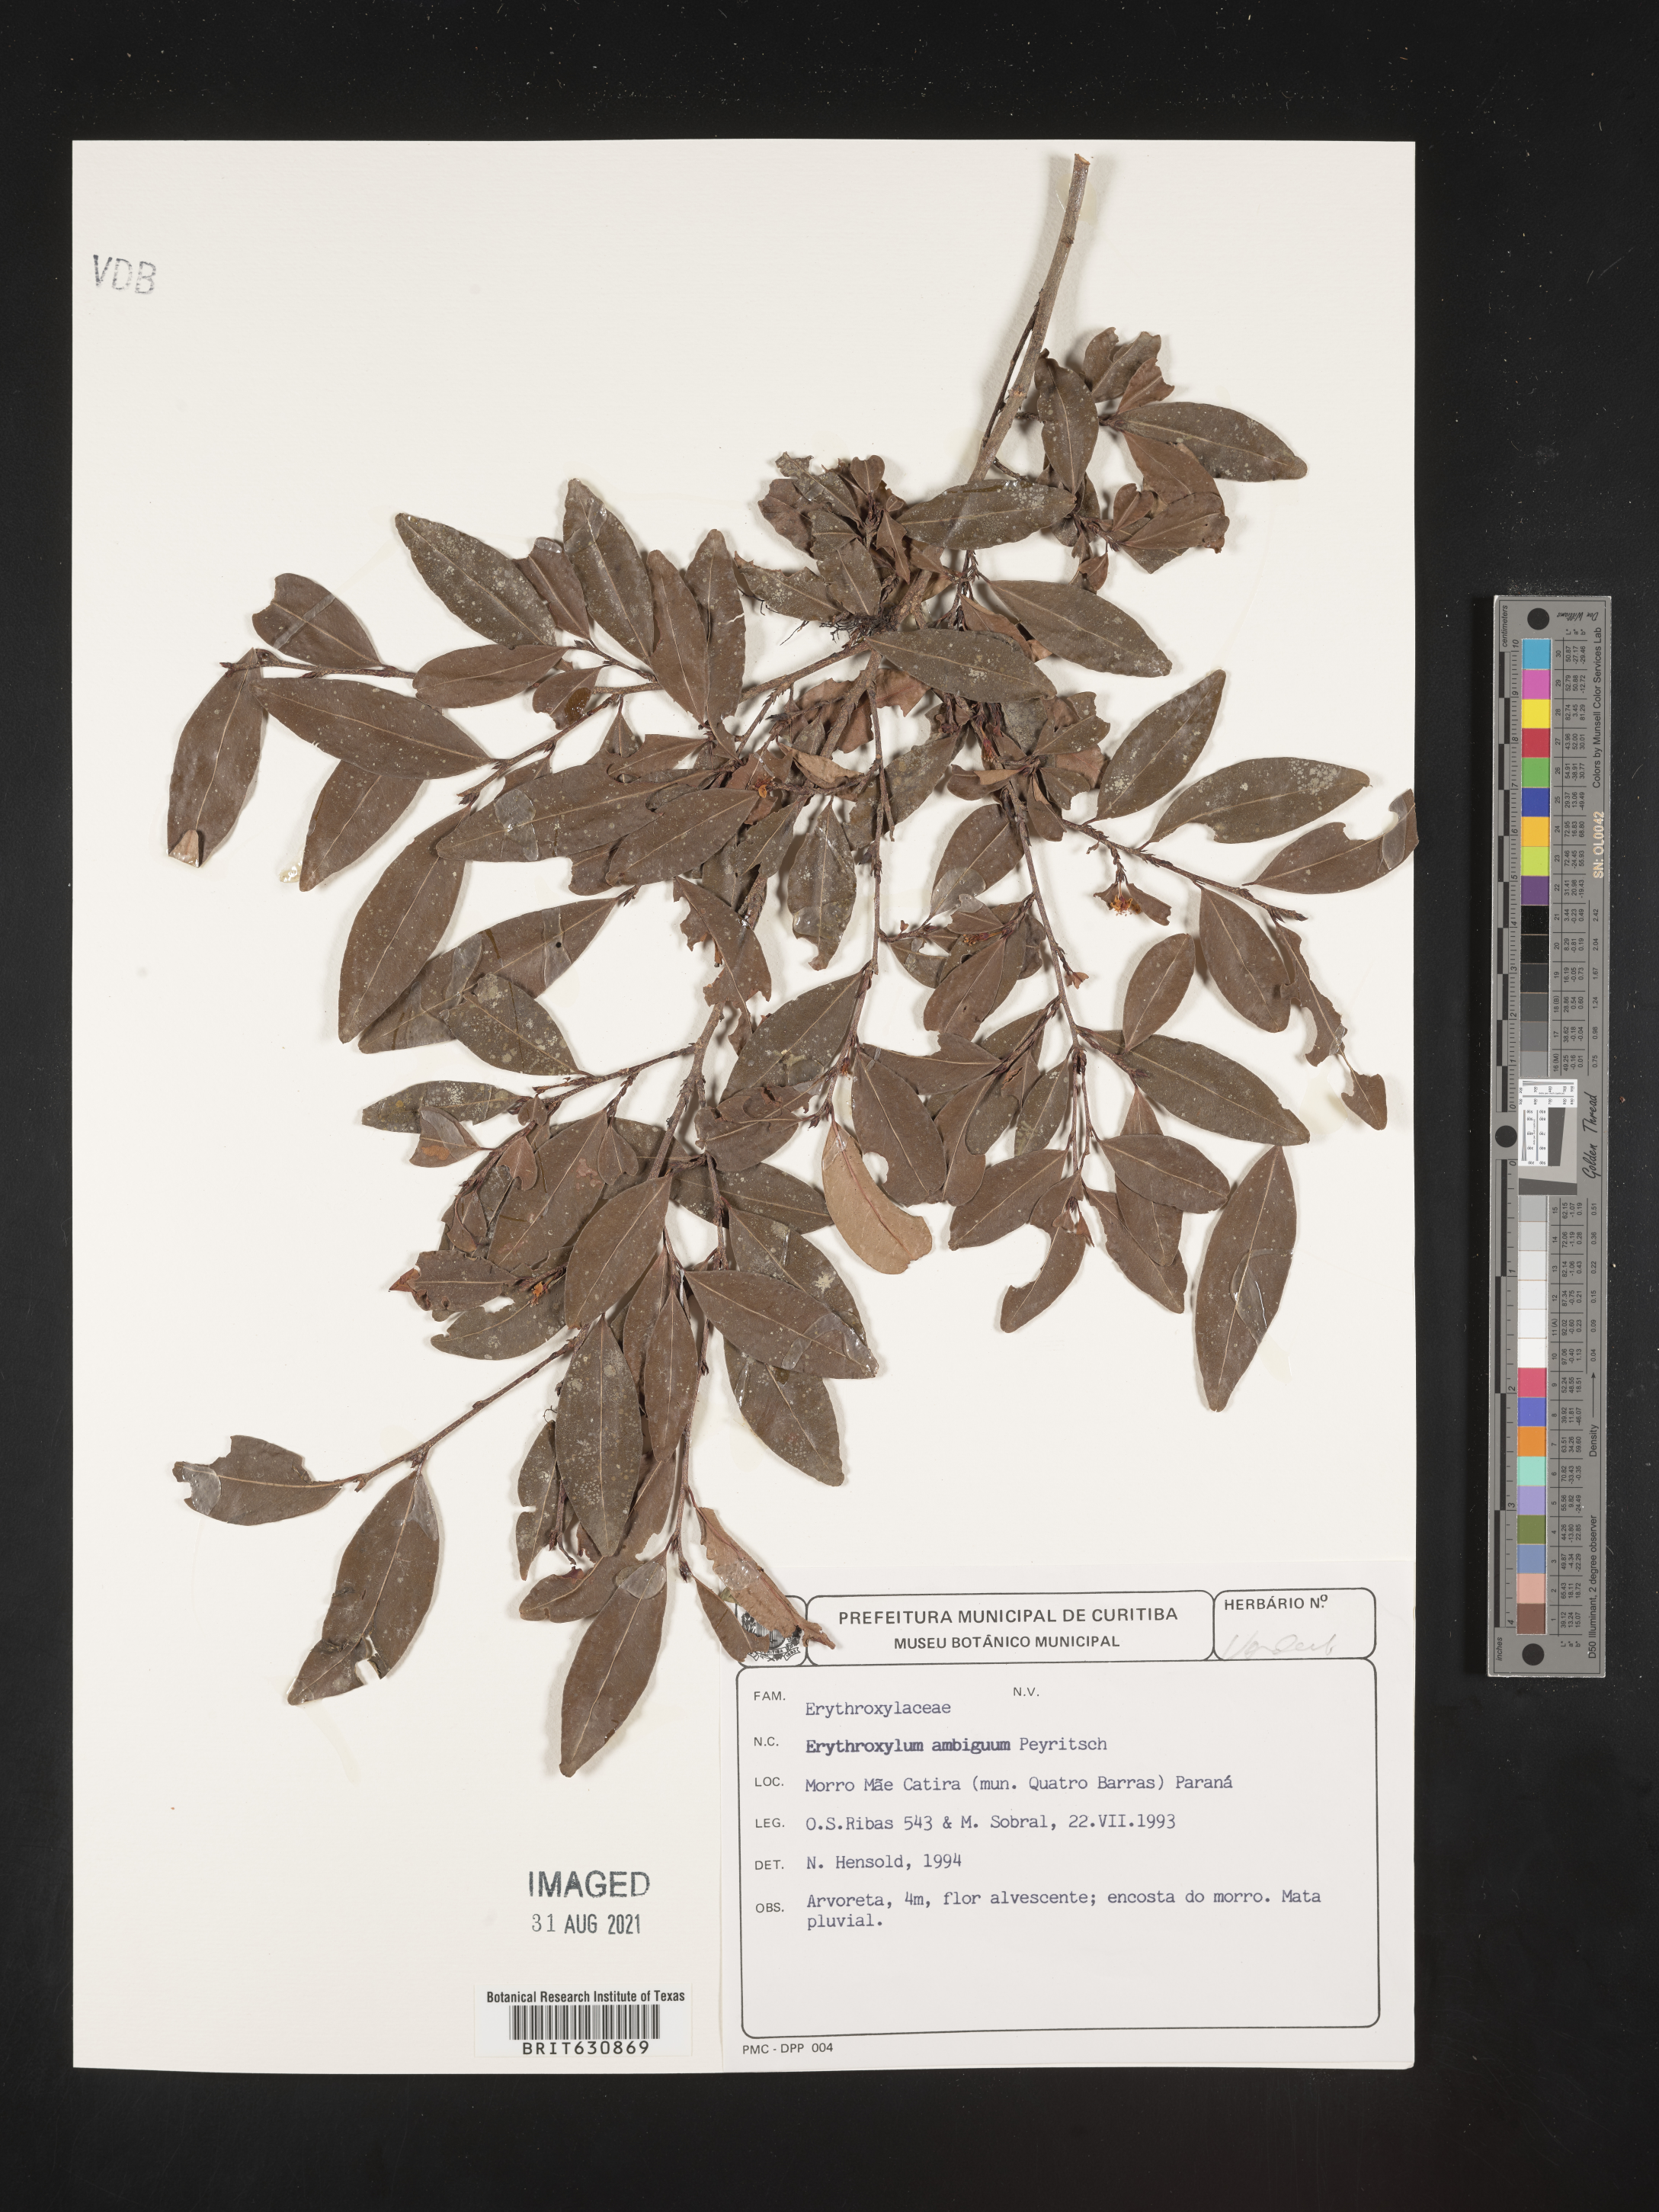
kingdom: Plantae
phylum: Tracheophyta
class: Magnoliopsida
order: Malpighiales
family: Erythroxylaceae
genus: Erythroxylum
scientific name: Erythroxylum
